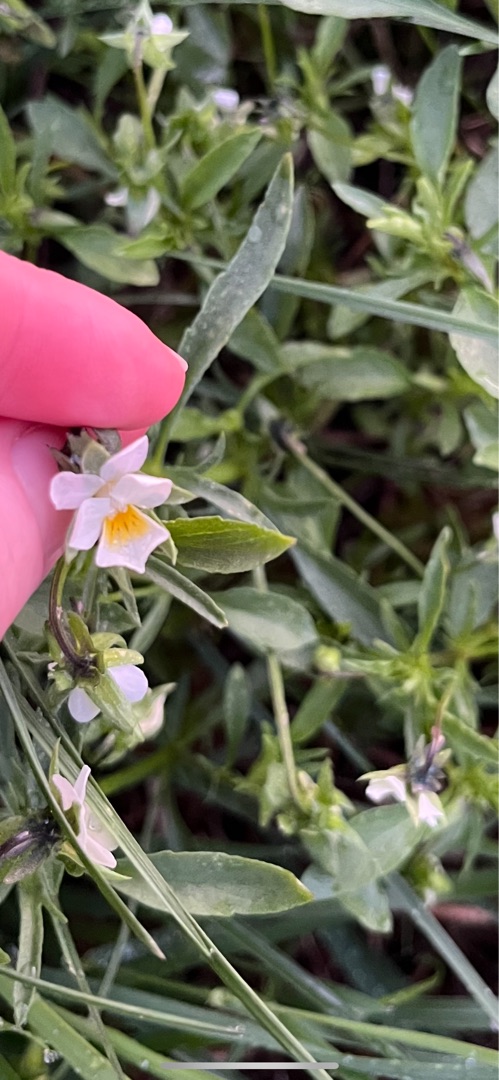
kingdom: Plantae
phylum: Tracheophyta
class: Magnoliopsida
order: Malpighiales
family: Violaceae
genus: Viola
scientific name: Viola arvensis
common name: Ager-stedmoderblomst
